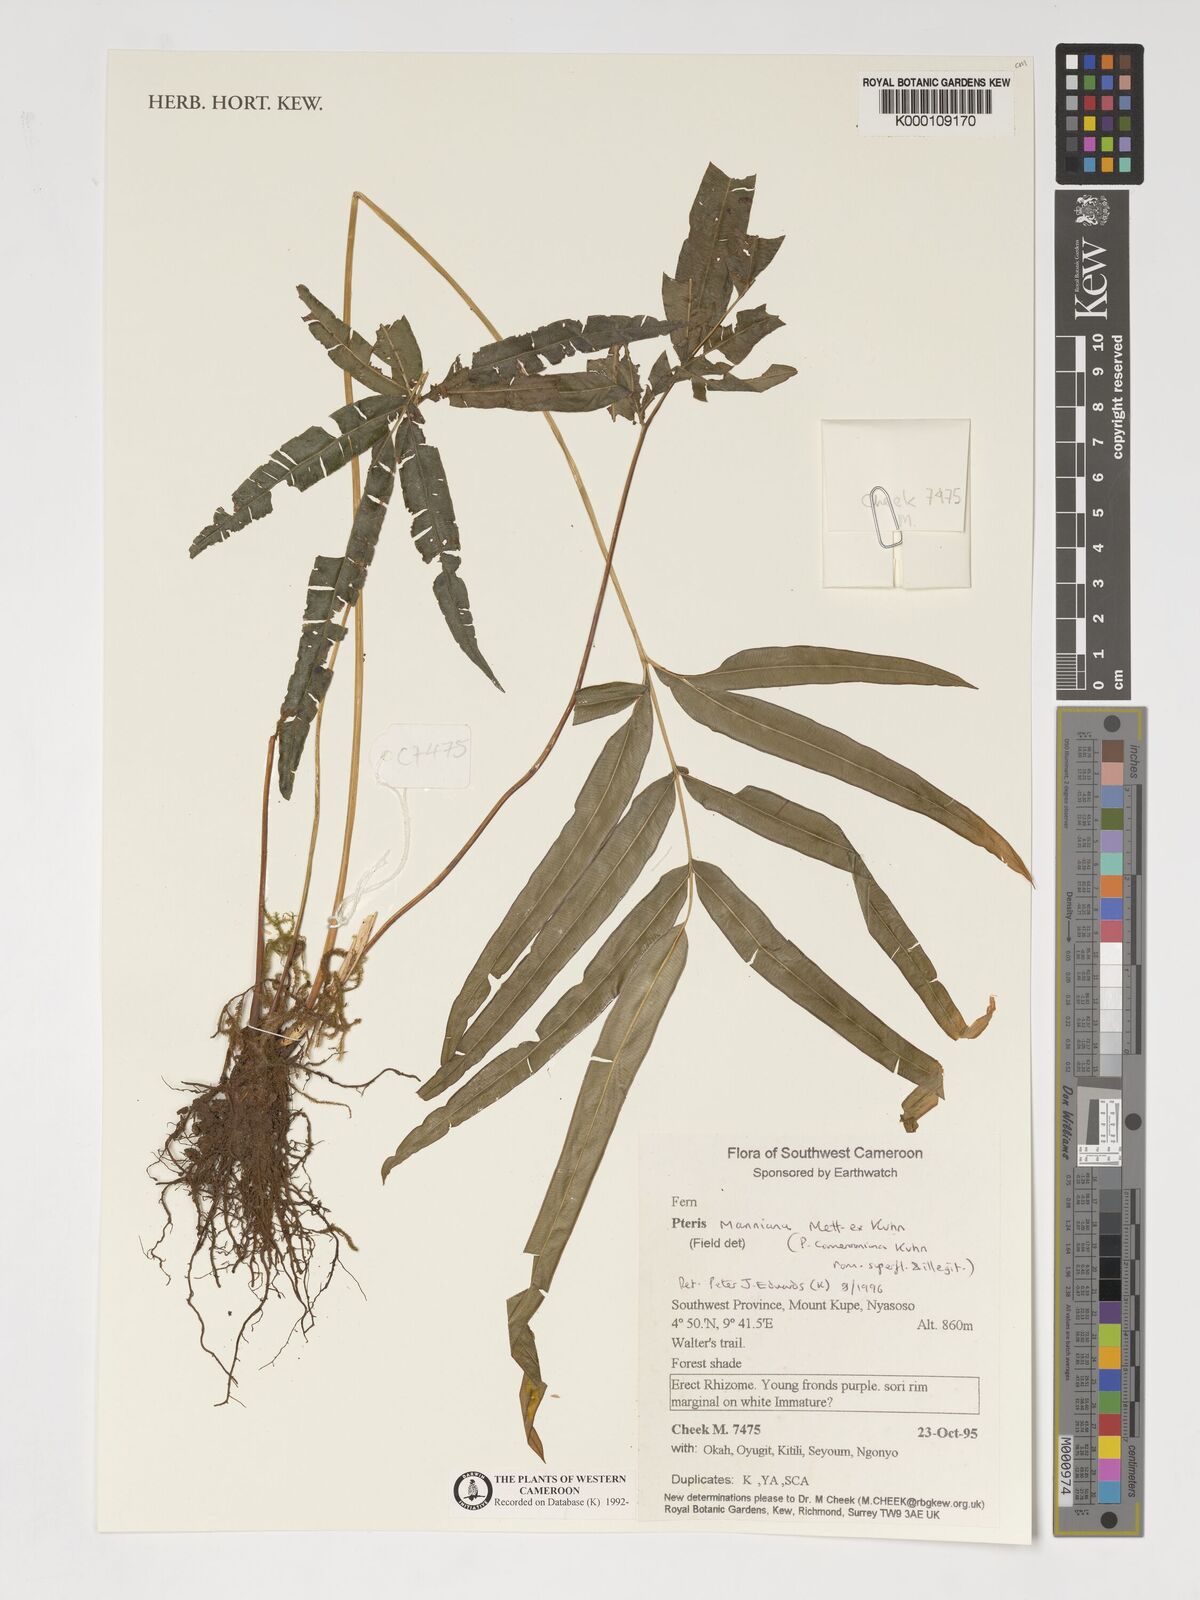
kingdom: Plantae
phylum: Tracheophyta
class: Polypodiopsida
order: Polypodiales
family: Pteridaceae
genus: Pteris
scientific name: Pteris camerooniana
